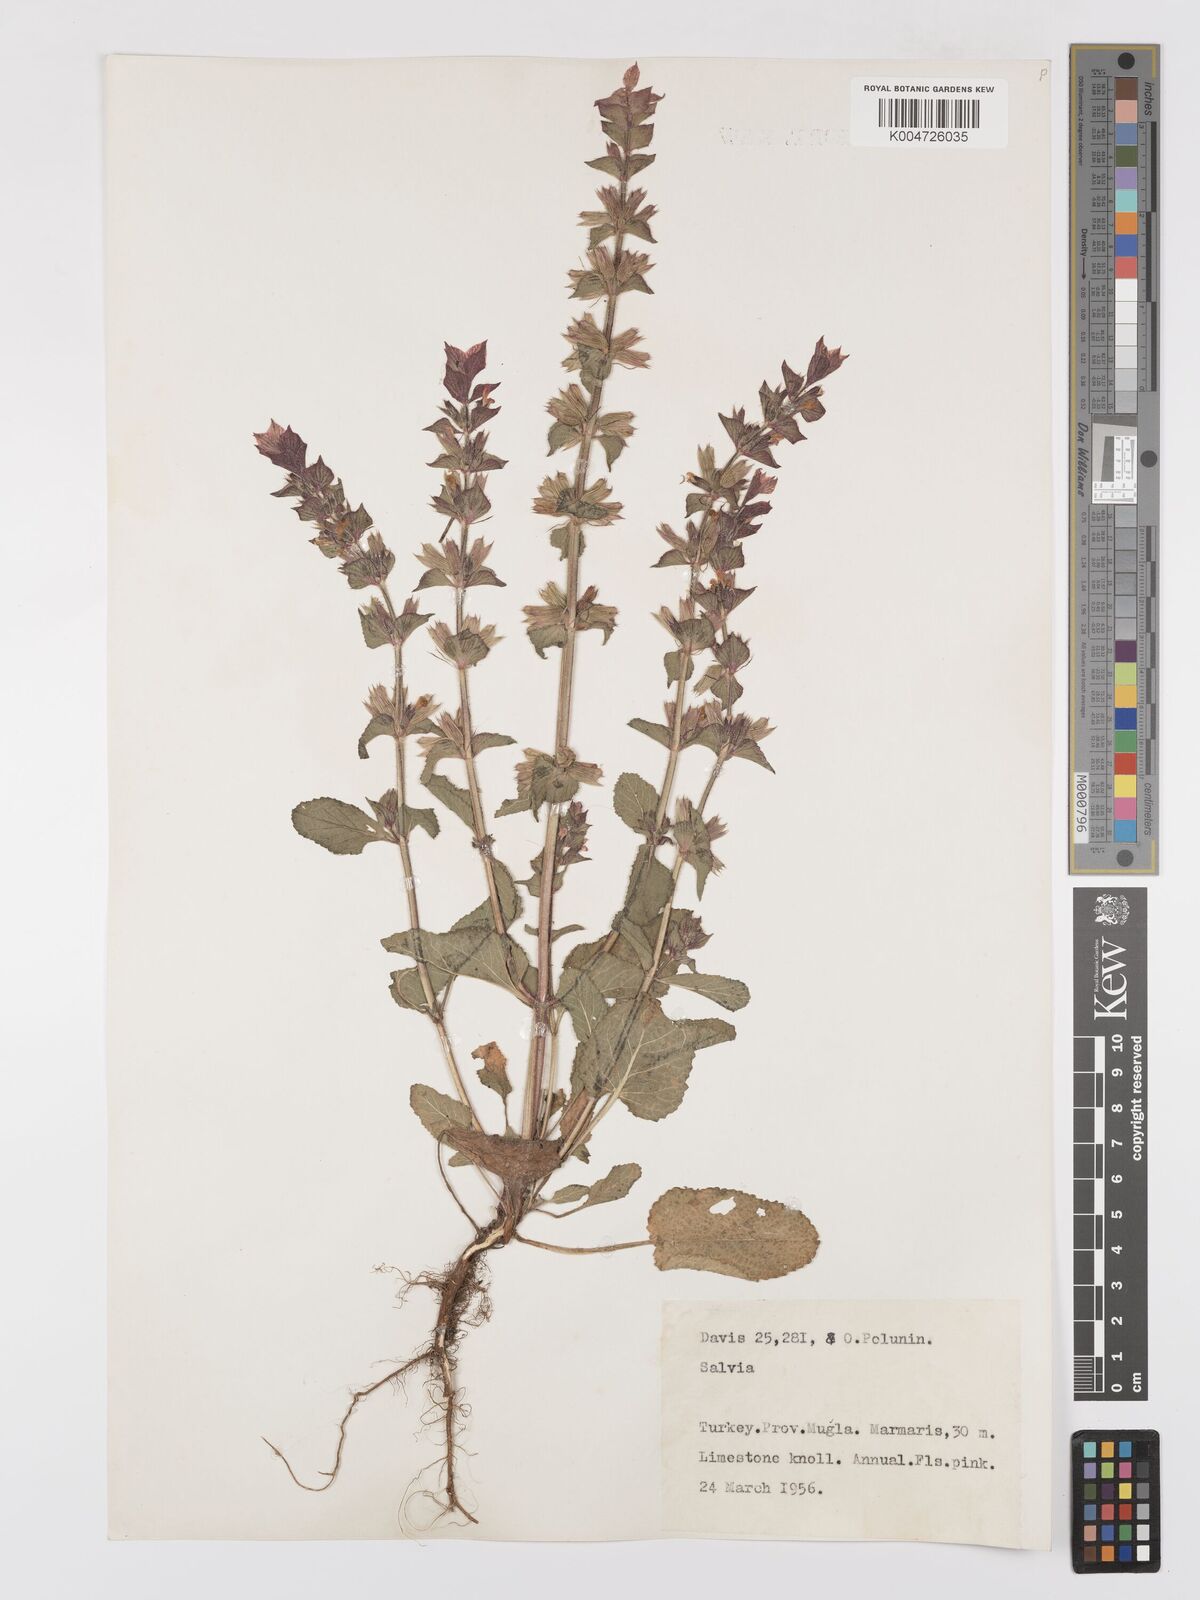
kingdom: Plantae
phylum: Tracheophyta
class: Magnoliopsida
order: Lamiales
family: Lamiaceae
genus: Salvia
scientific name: Salvia viridis
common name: Annual clary
